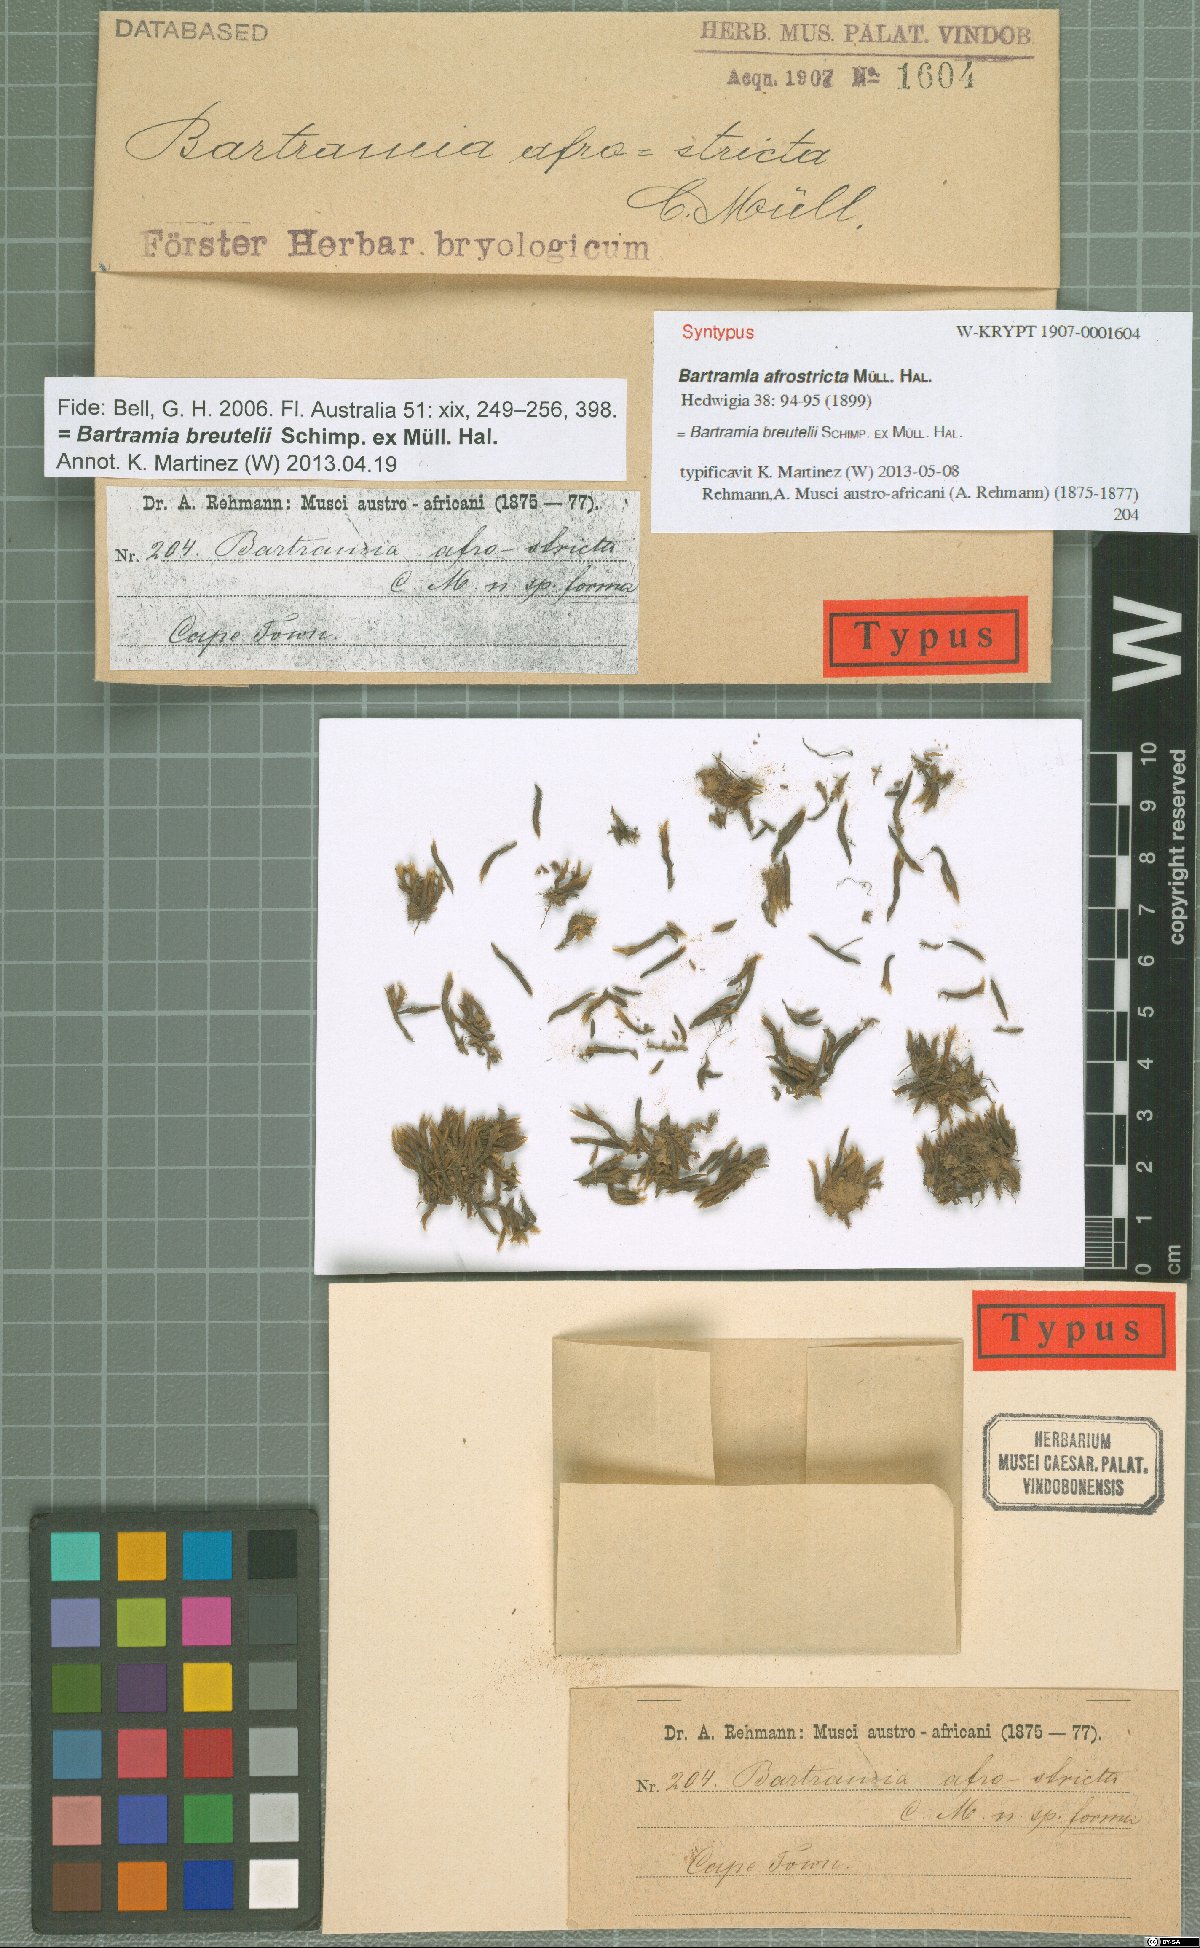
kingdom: Plantae
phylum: Bryophyta
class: Bryopsida
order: Bartramiales
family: Bartramiaceae
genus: Anacolia
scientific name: Anacolia breutelii
